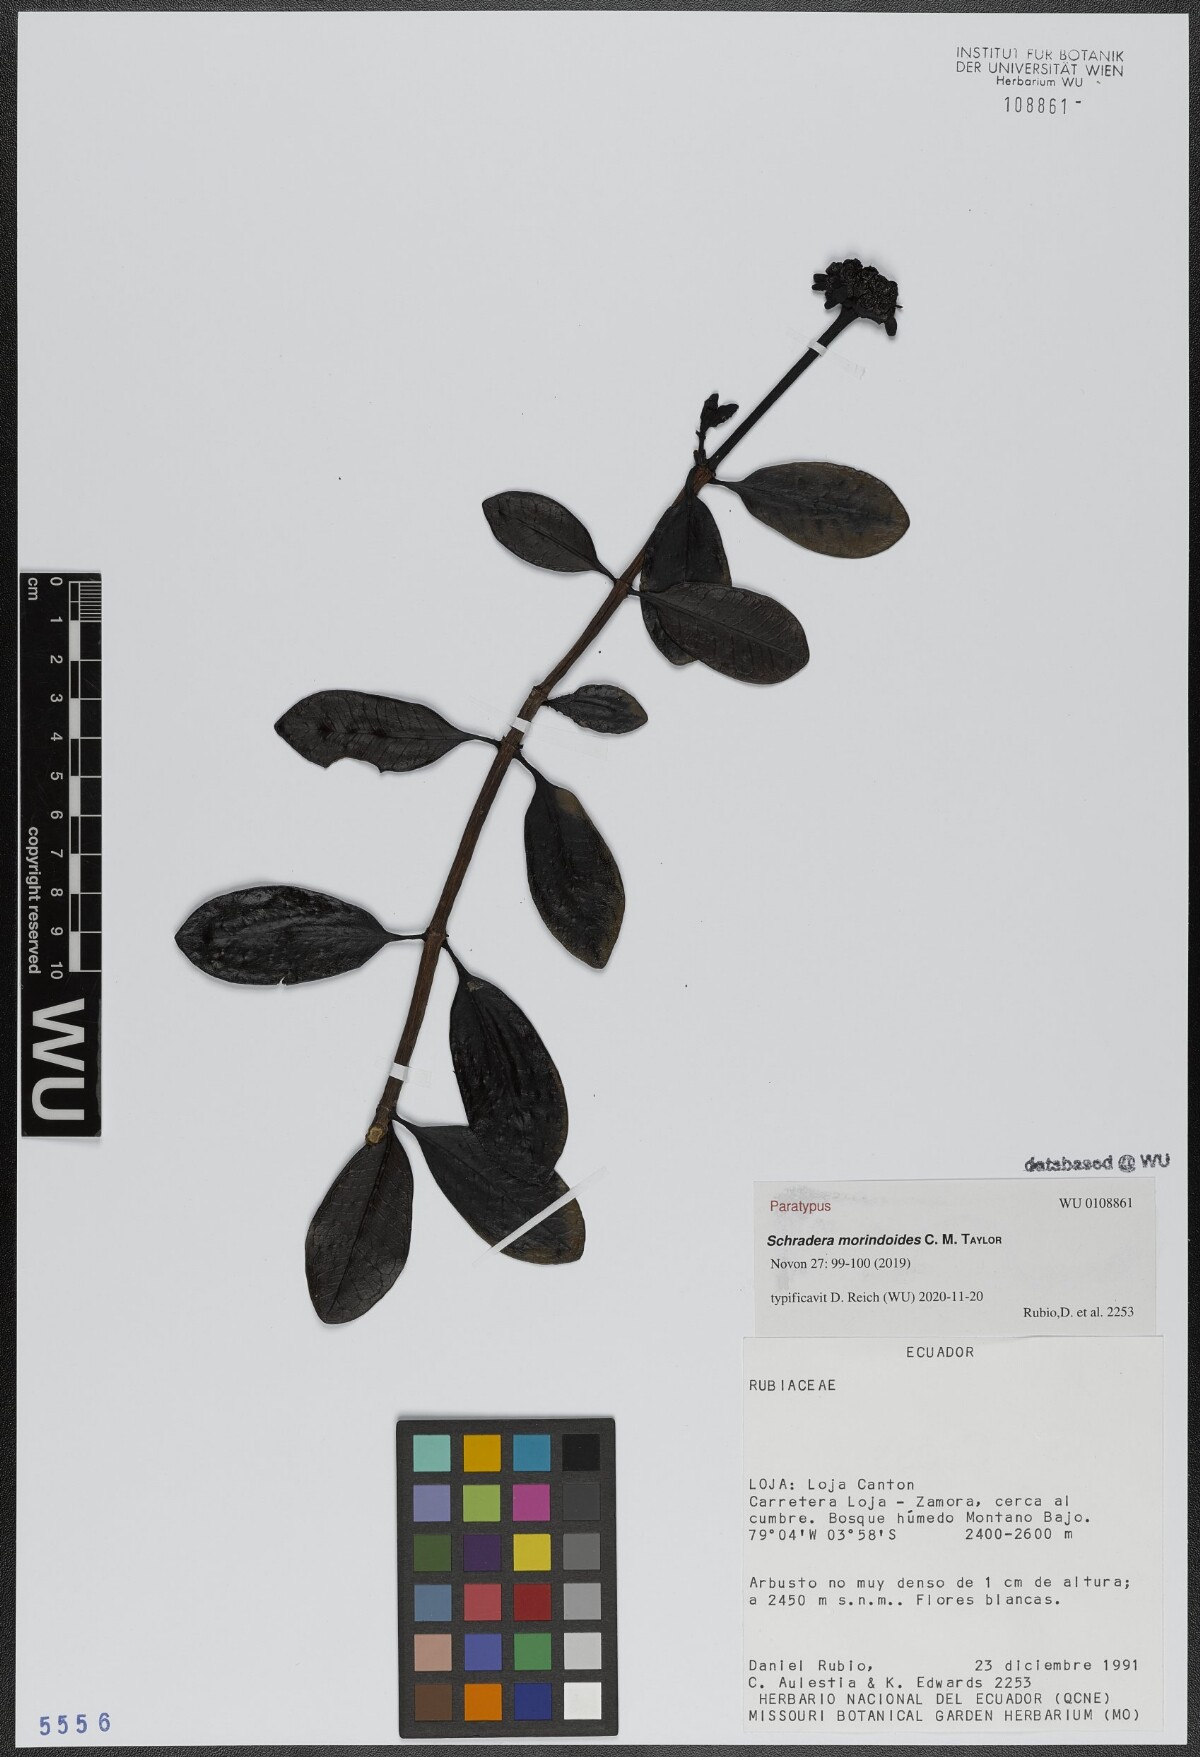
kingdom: Plantae
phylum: Tracheophyta
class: Magnoliopsida
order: Gentianales
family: Rubiaceae
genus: Schradera
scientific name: Schradera morindoides
